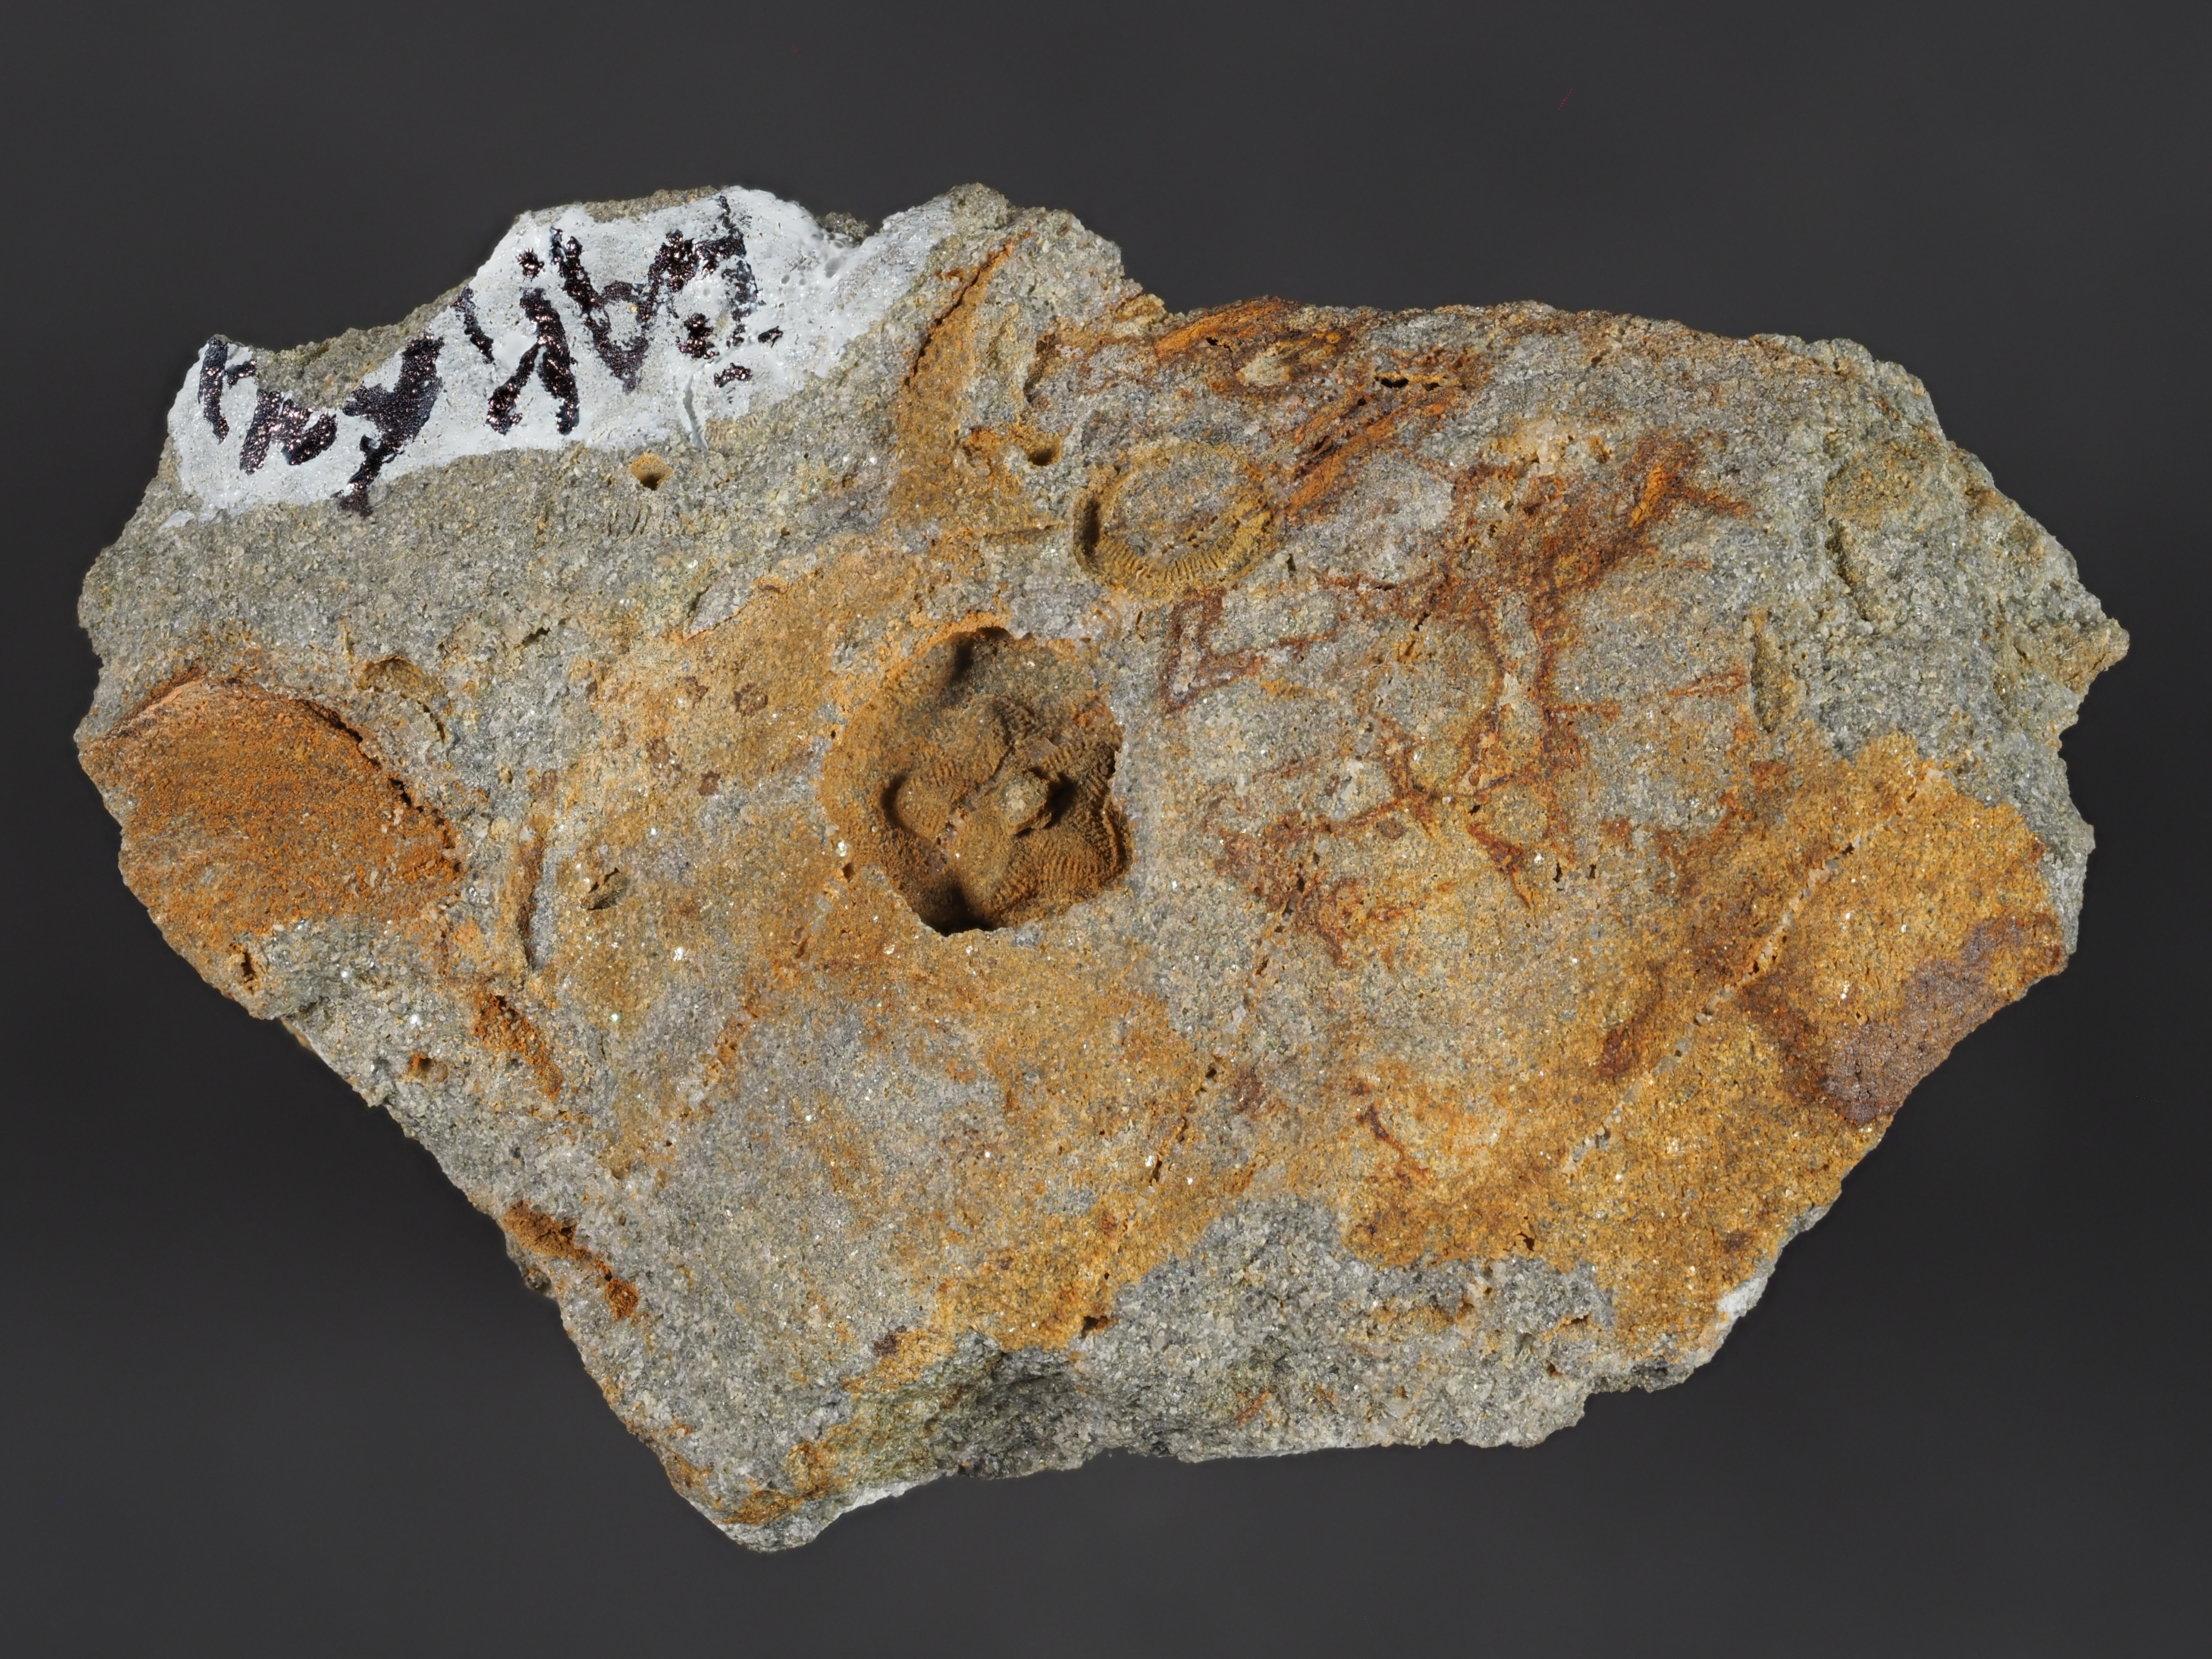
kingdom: Animalia
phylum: Echinodermata
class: Crinoidea
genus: Diamenocrinus
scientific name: Diamenocrinus
